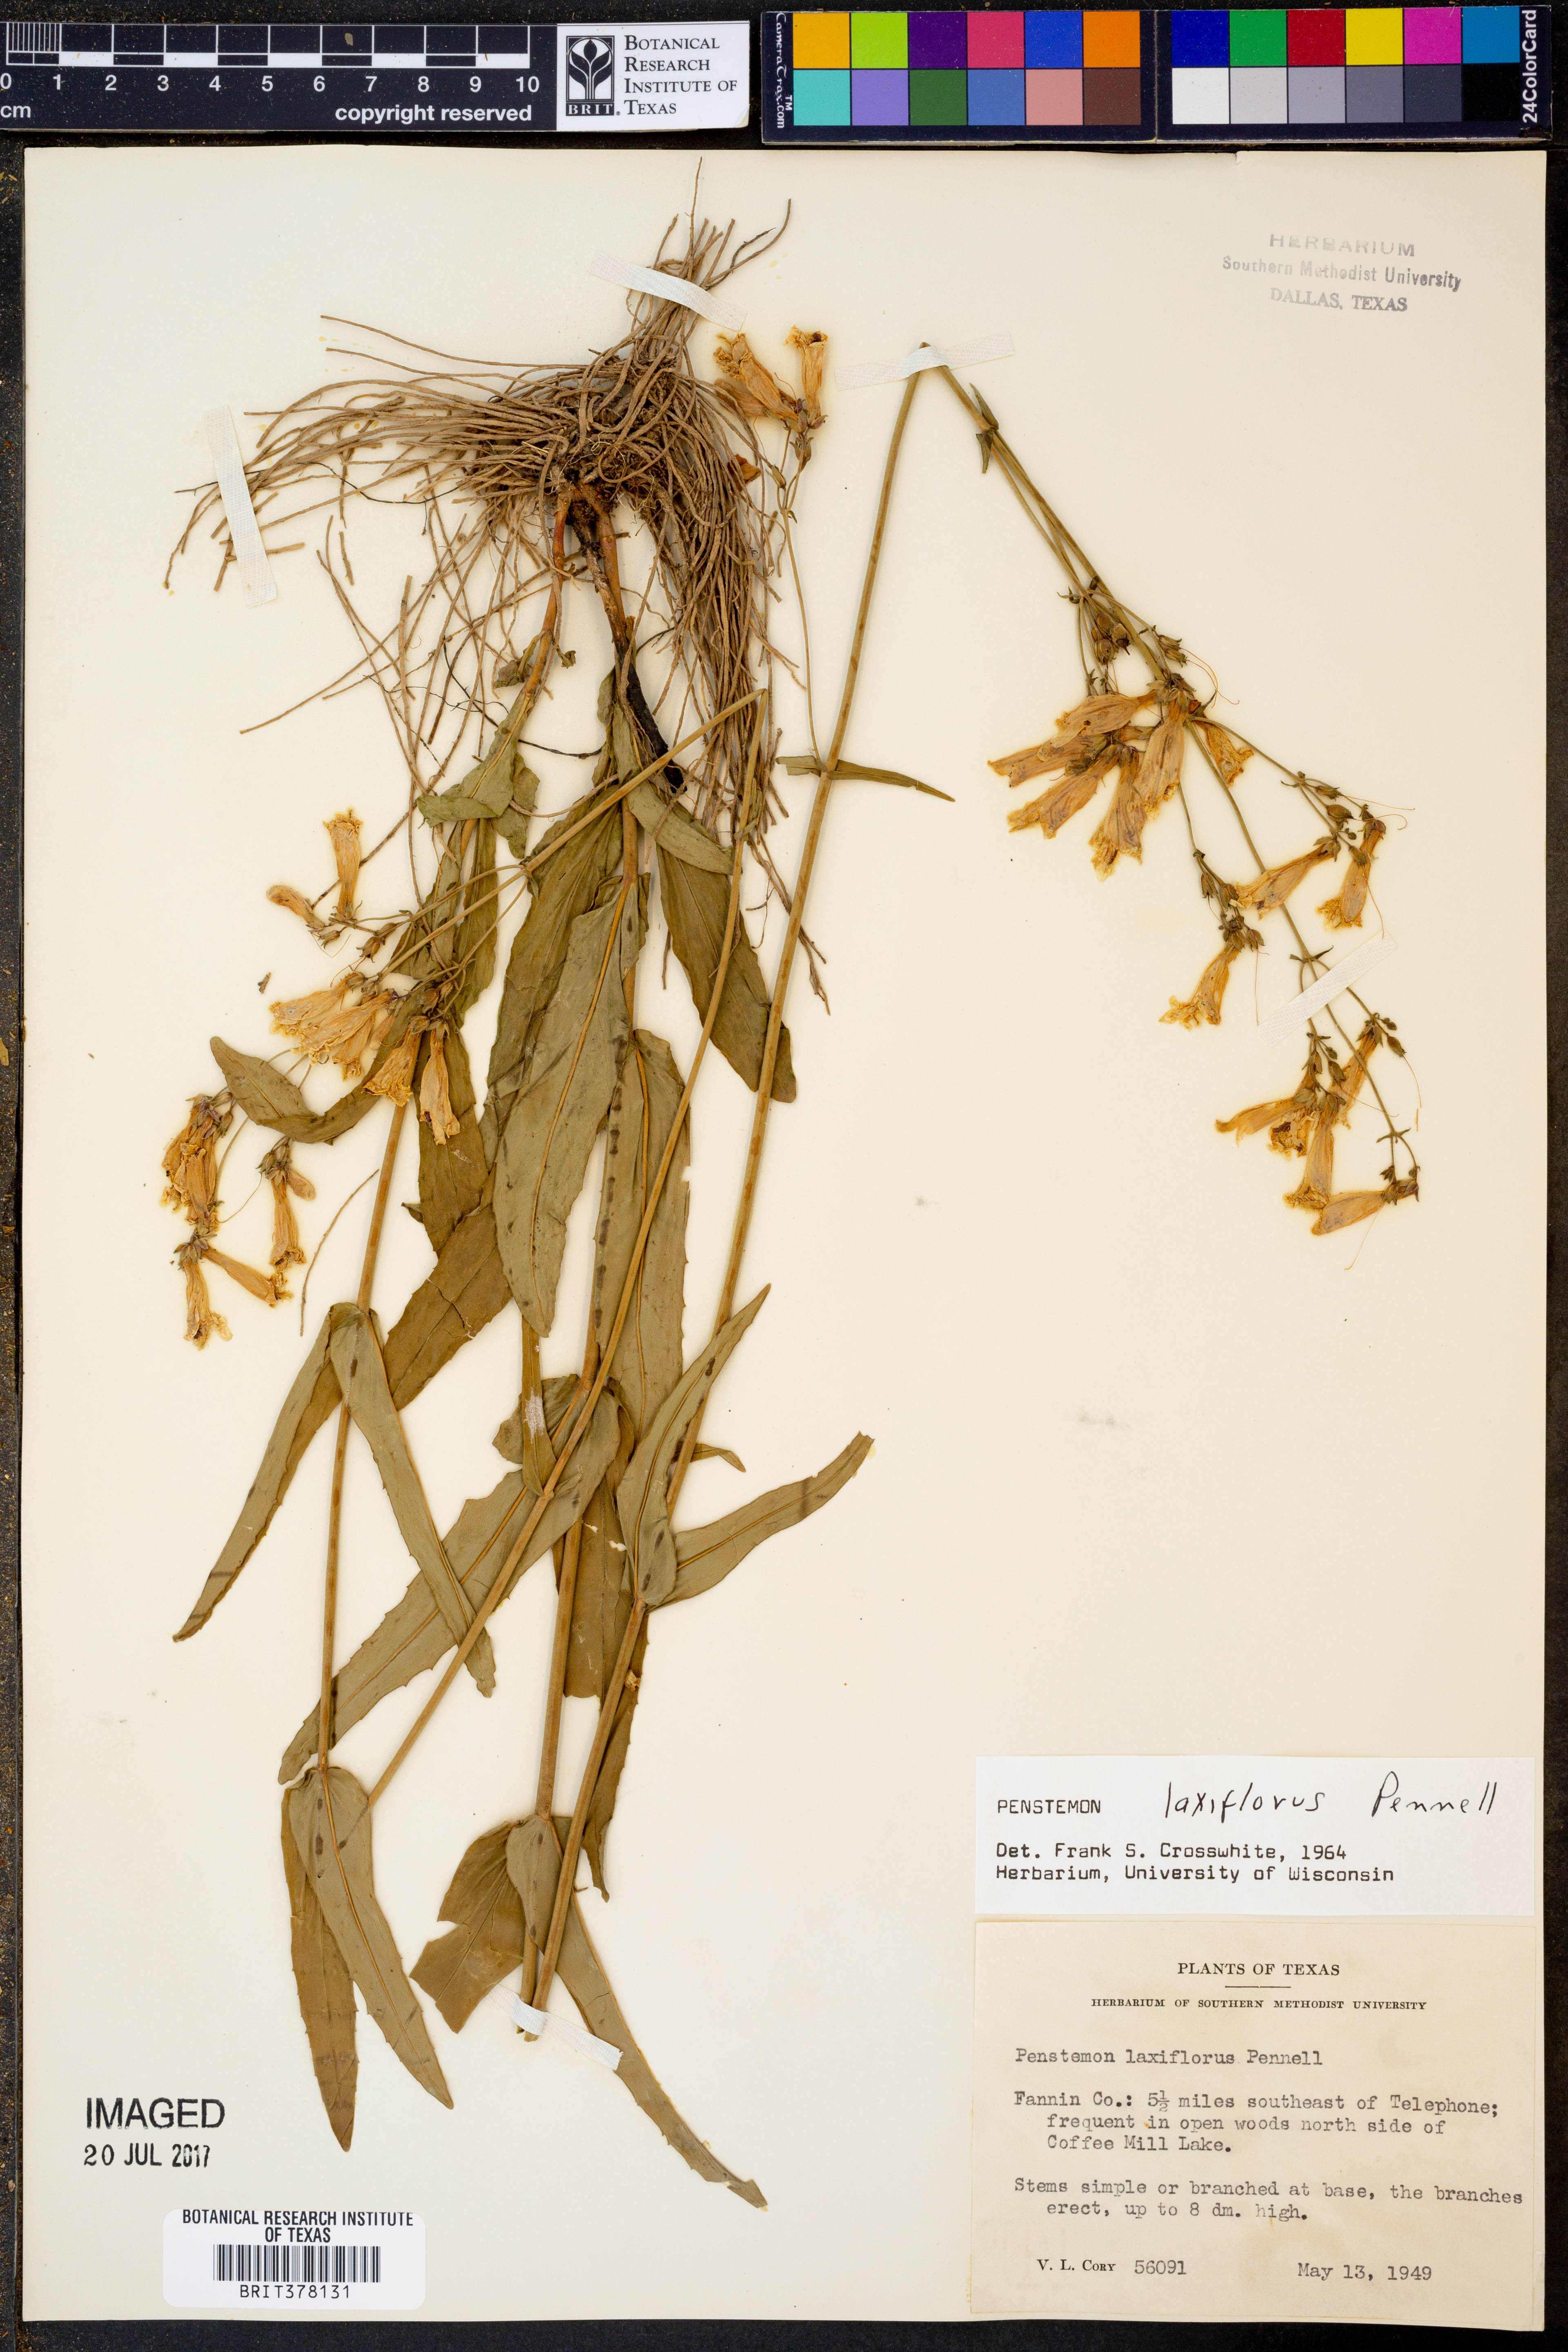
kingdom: Plantae
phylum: Tracheophyta
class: Magnoliopsida
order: Lamiales
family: Plantaginaceae
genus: Penstemon
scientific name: Penstemon laxiflorus
